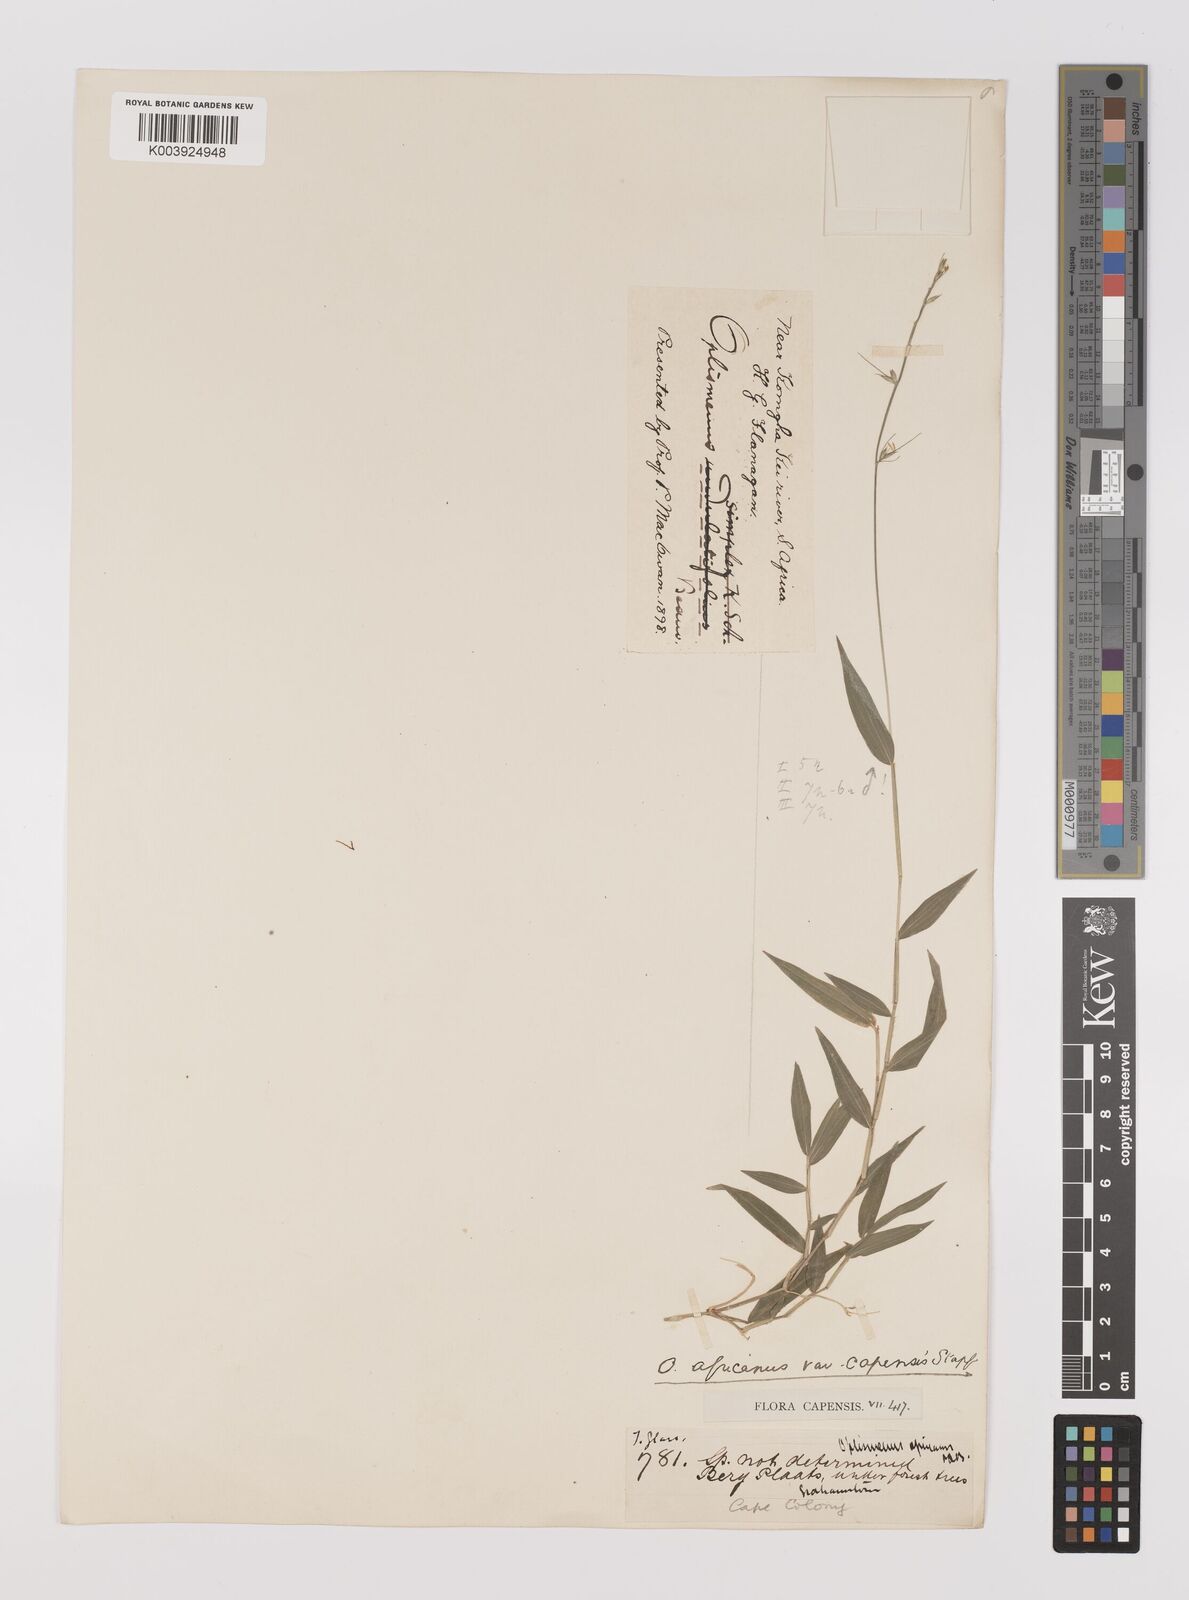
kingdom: Plantae
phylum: Tracheophyta
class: Liliopsida
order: Poales
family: Poaceae
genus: Oplismenus
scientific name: Oplismenus undulatifolius
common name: Wavyleaf basketgrass
